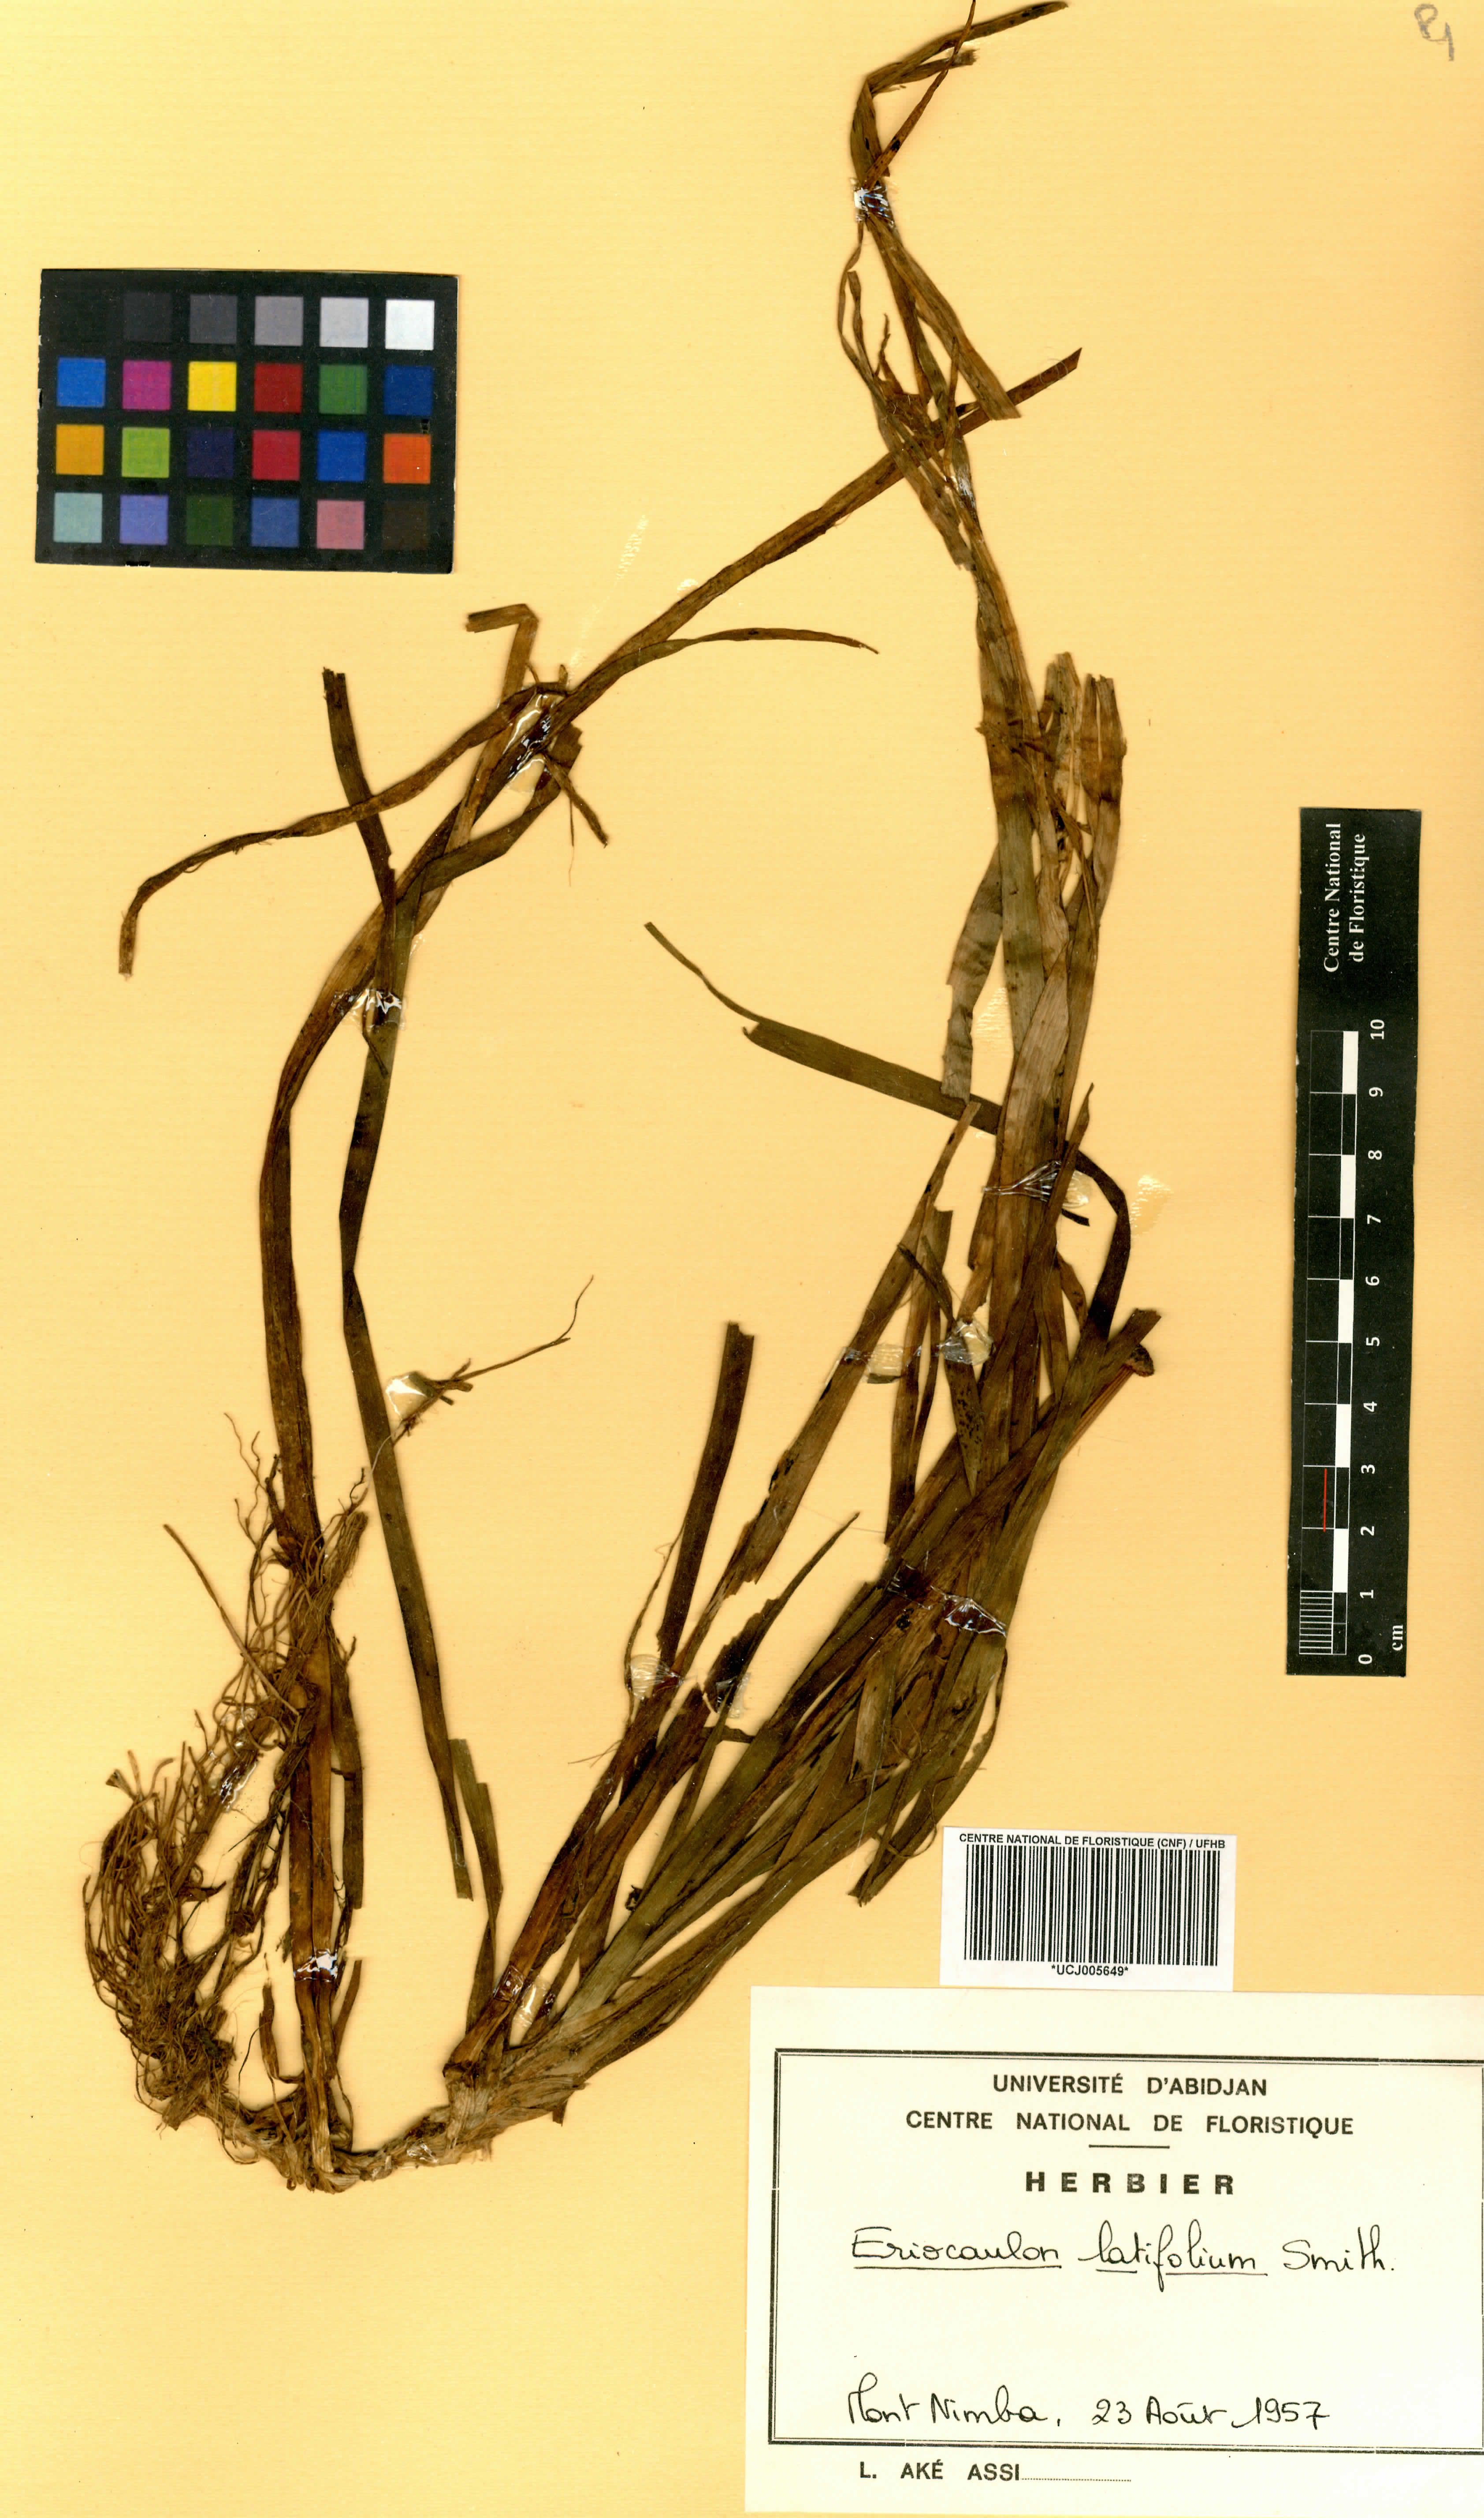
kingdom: Plantae
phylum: Tracheophyta
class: Liliopsida
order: Poales
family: Eriocaulaceae
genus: Eriocaulon
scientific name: Eriocaulon latifolium
